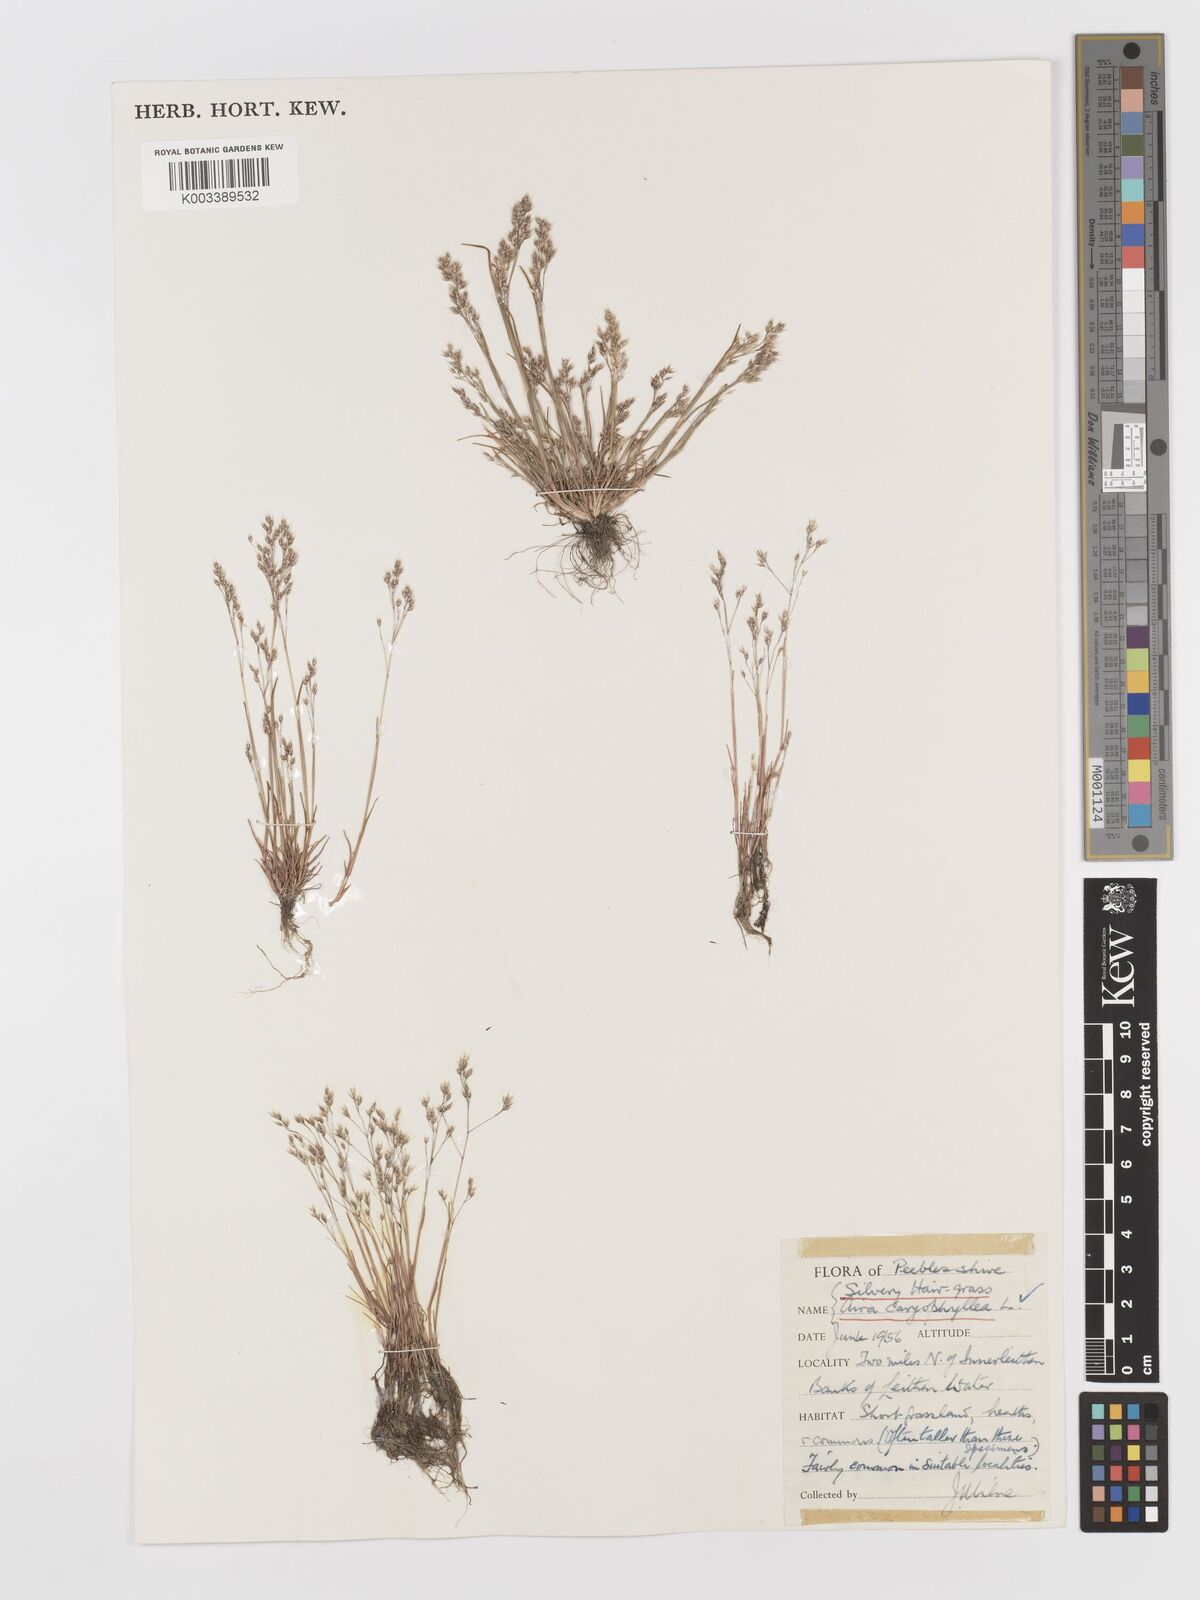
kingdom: Plantae
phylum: Tracheophyta
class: Liliopsida
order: Poales
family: Poaceae
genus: Aira
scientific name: Aira caryophyllea
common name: Silver hairgrass
